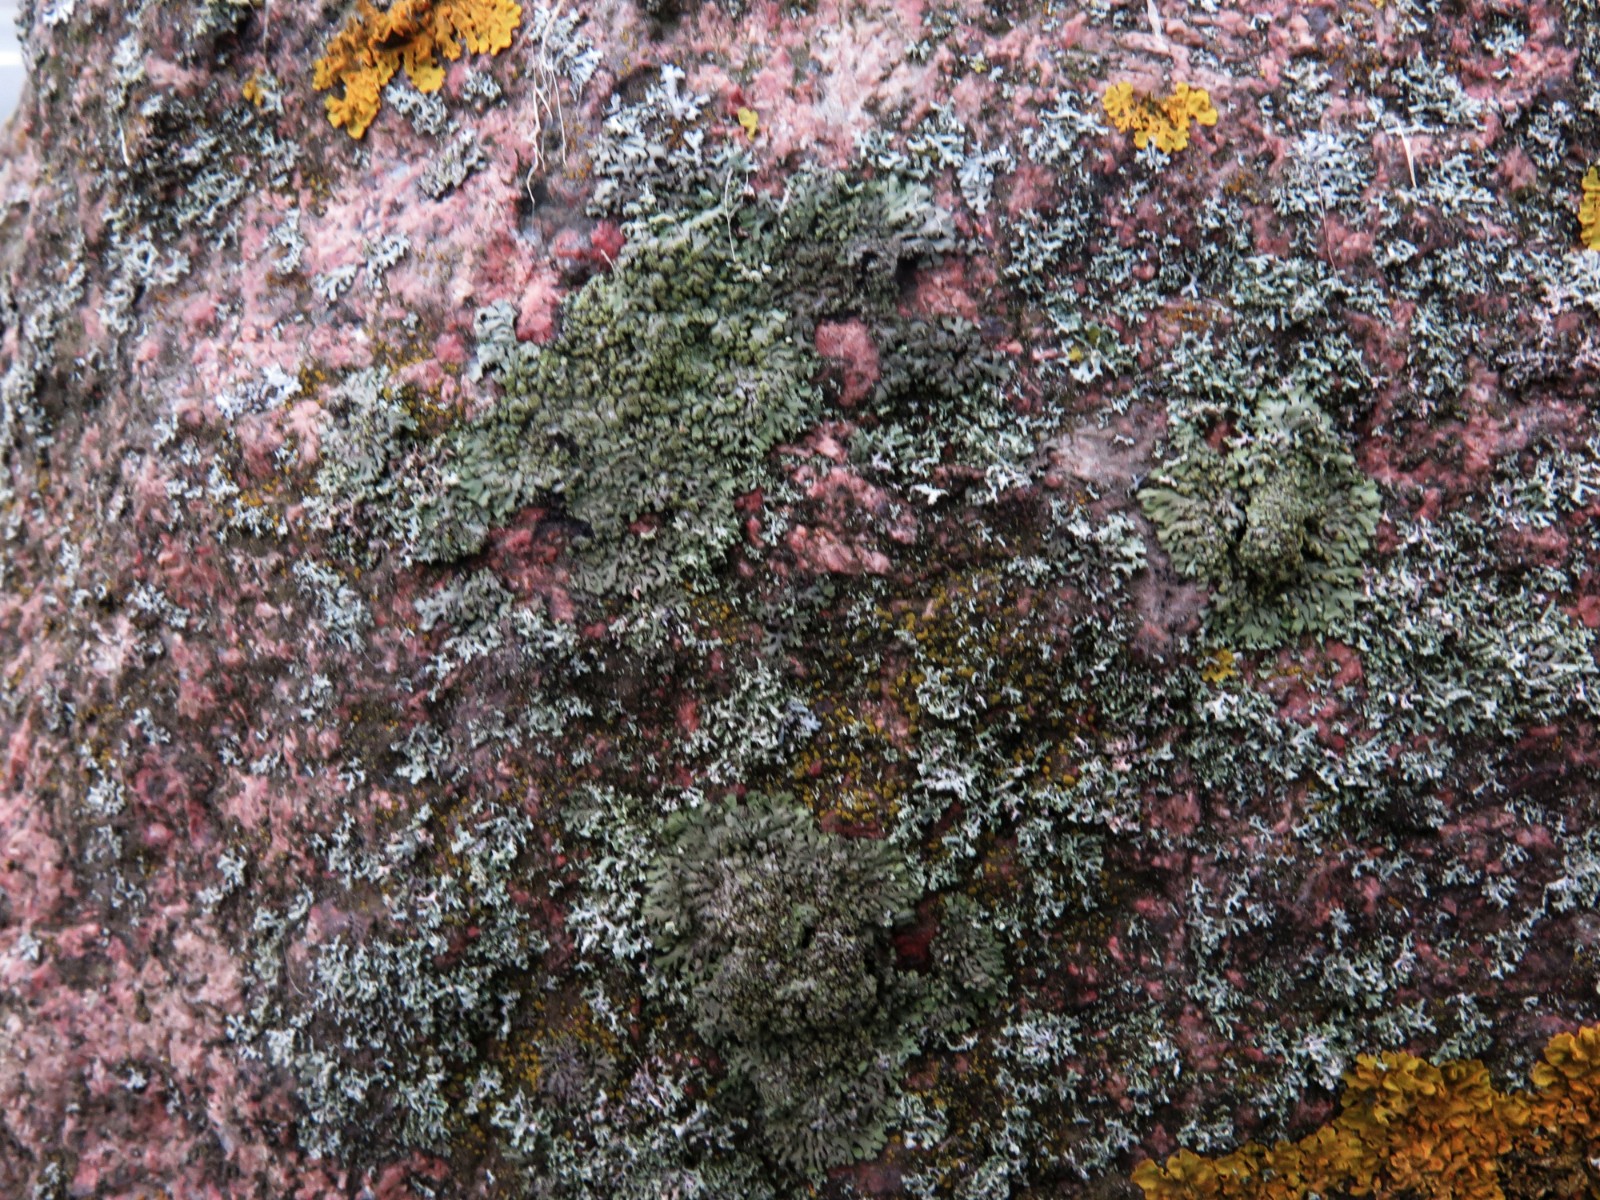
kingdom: Fungi
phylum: Ascomycota
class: Lecanoromycetes
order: Caliciales
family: Physciaceae
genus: Phaeophyscia
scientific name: Phaeophyscia orbicularis
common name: grågrøn rosetlav
